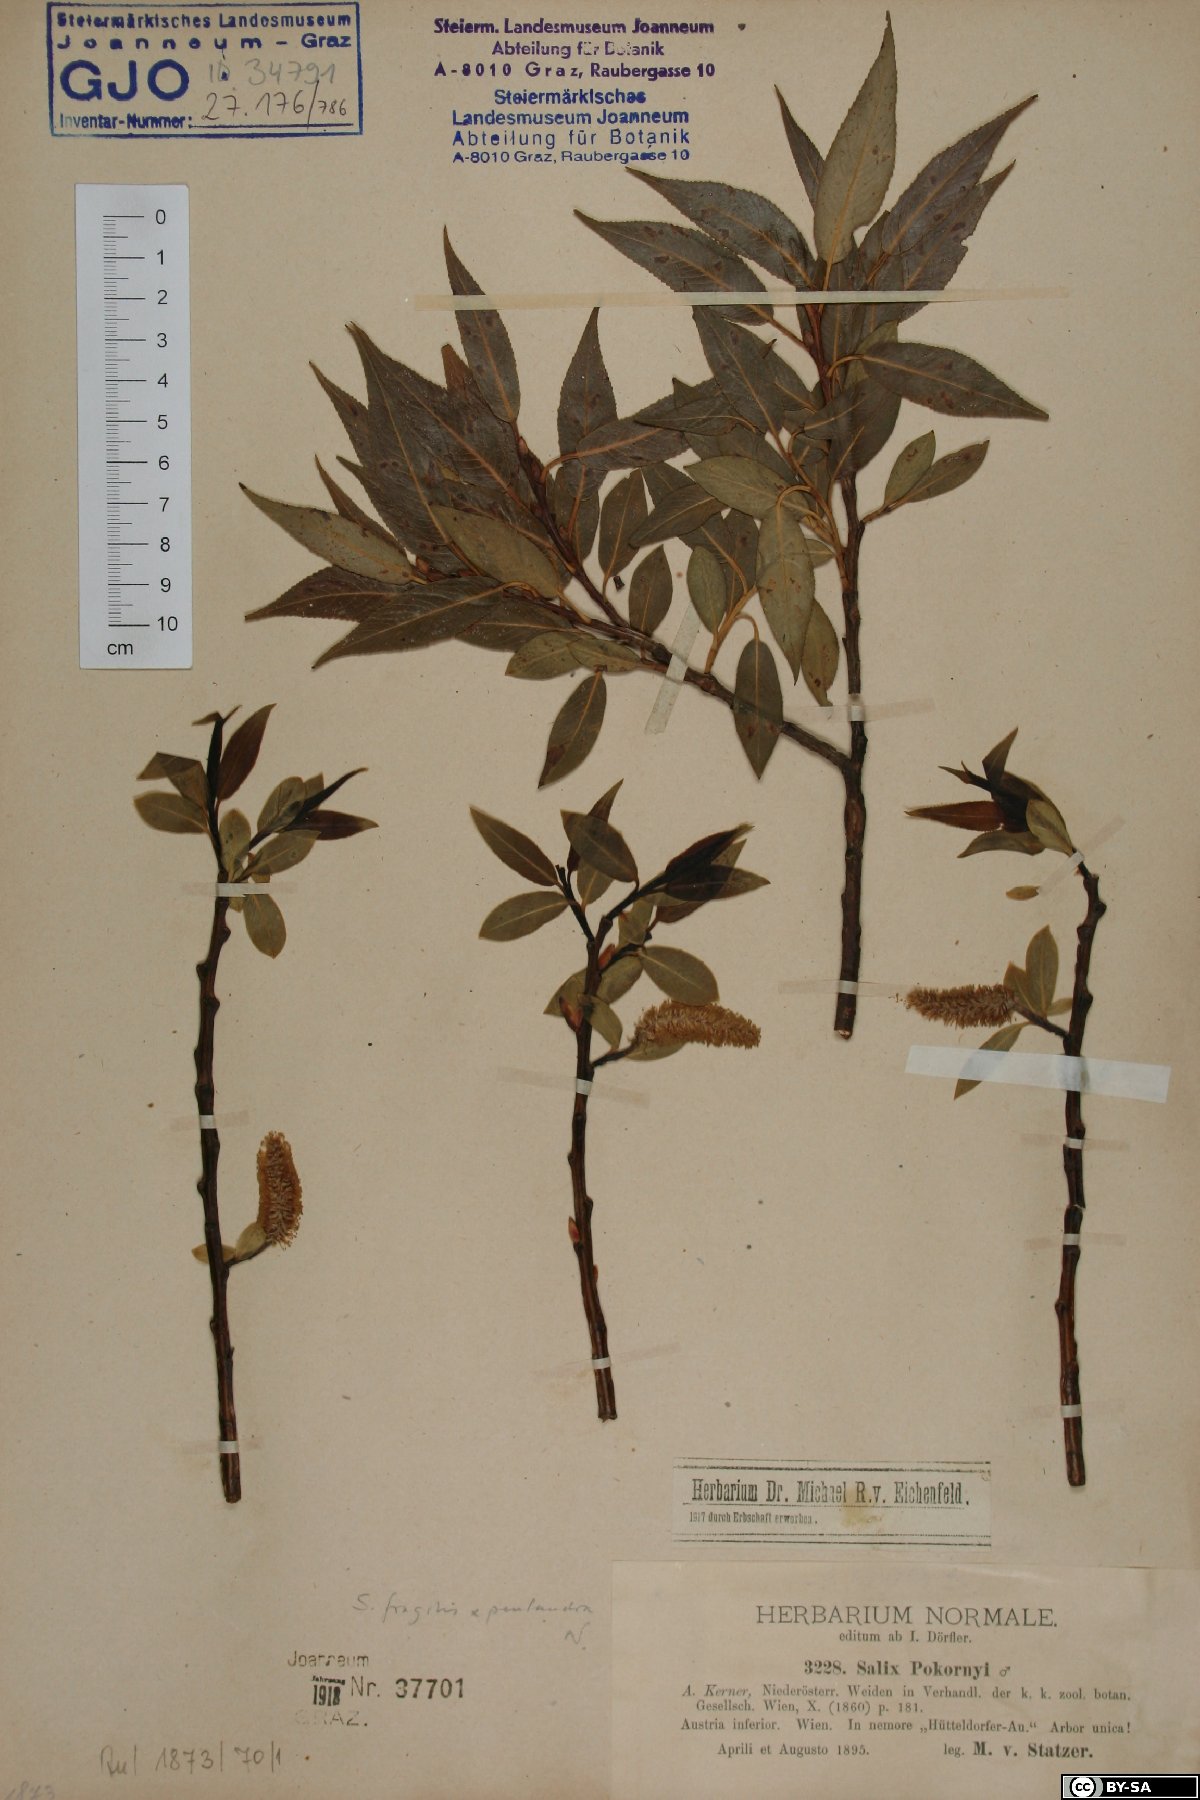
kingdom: Plantae
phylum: Tracheophyta
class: Magnoliopsida
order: Malpighiales
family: Salicaceae
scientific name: Salicaceae
